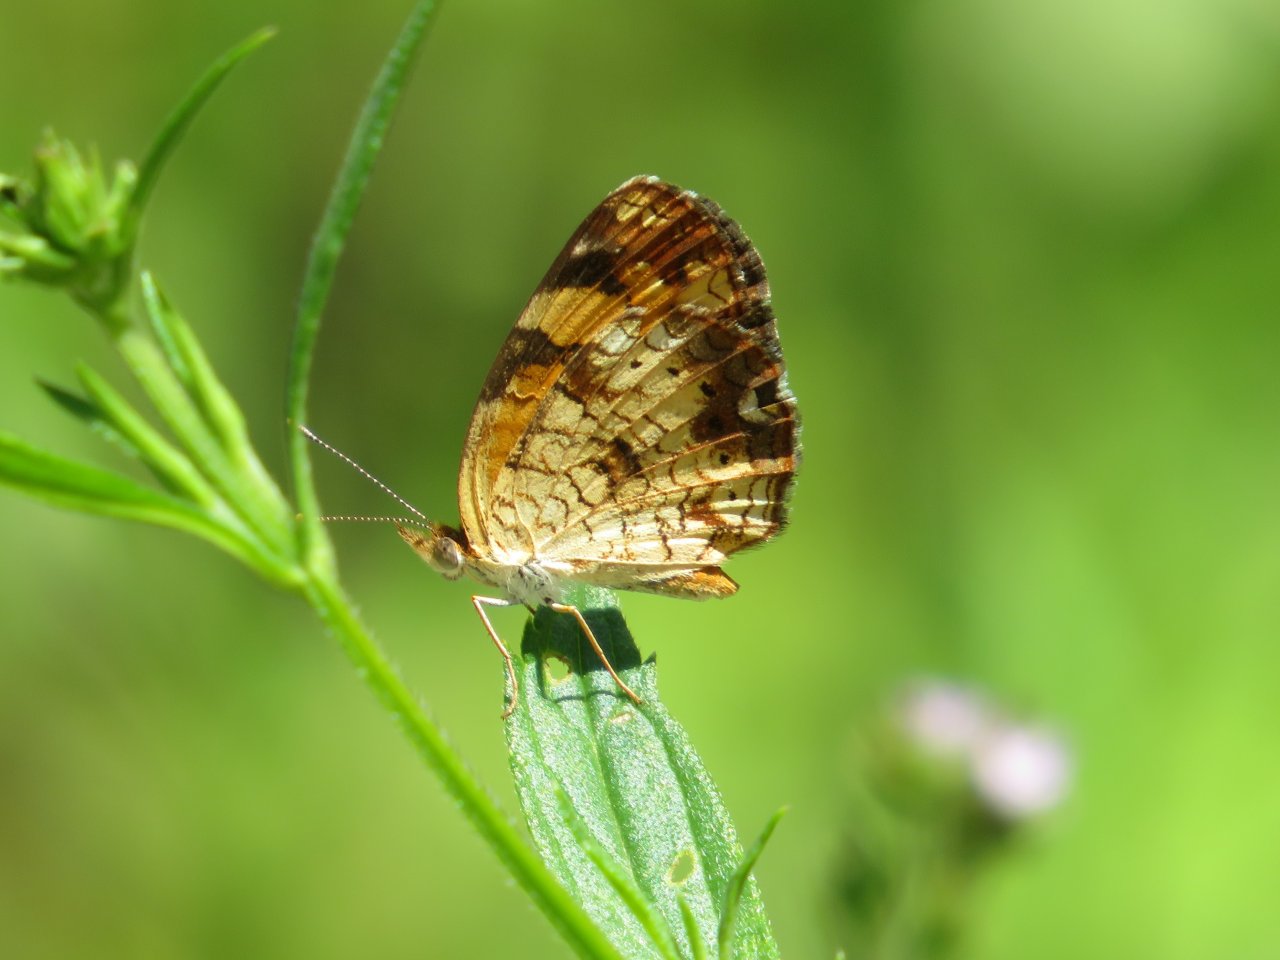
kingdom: Animalia
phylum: Arthropoda
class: Insecta
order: Lepidoptera
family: Nymphalidae
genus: Phyciodes
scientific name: Phyciodes tharos
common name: Pearl Crescent
